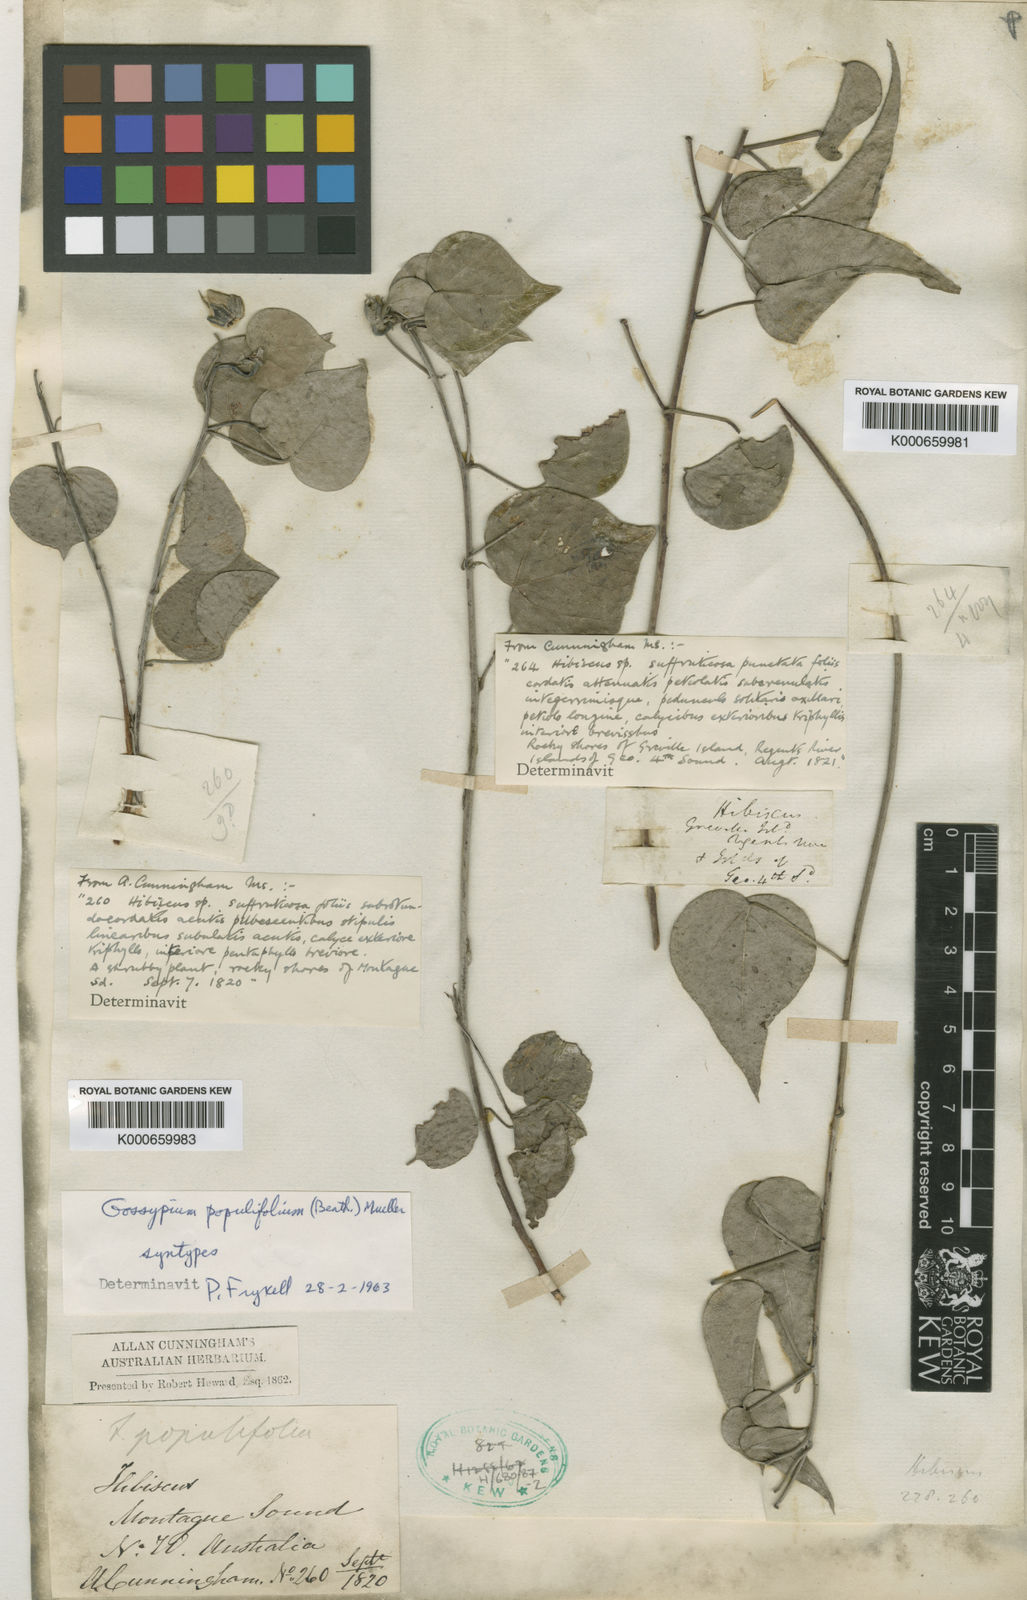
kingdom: Plantae
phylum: Tracheophyta
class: Magnoliopsida
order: Malvales
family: Malvaceae
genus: Gossypium
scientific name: Gossypium
